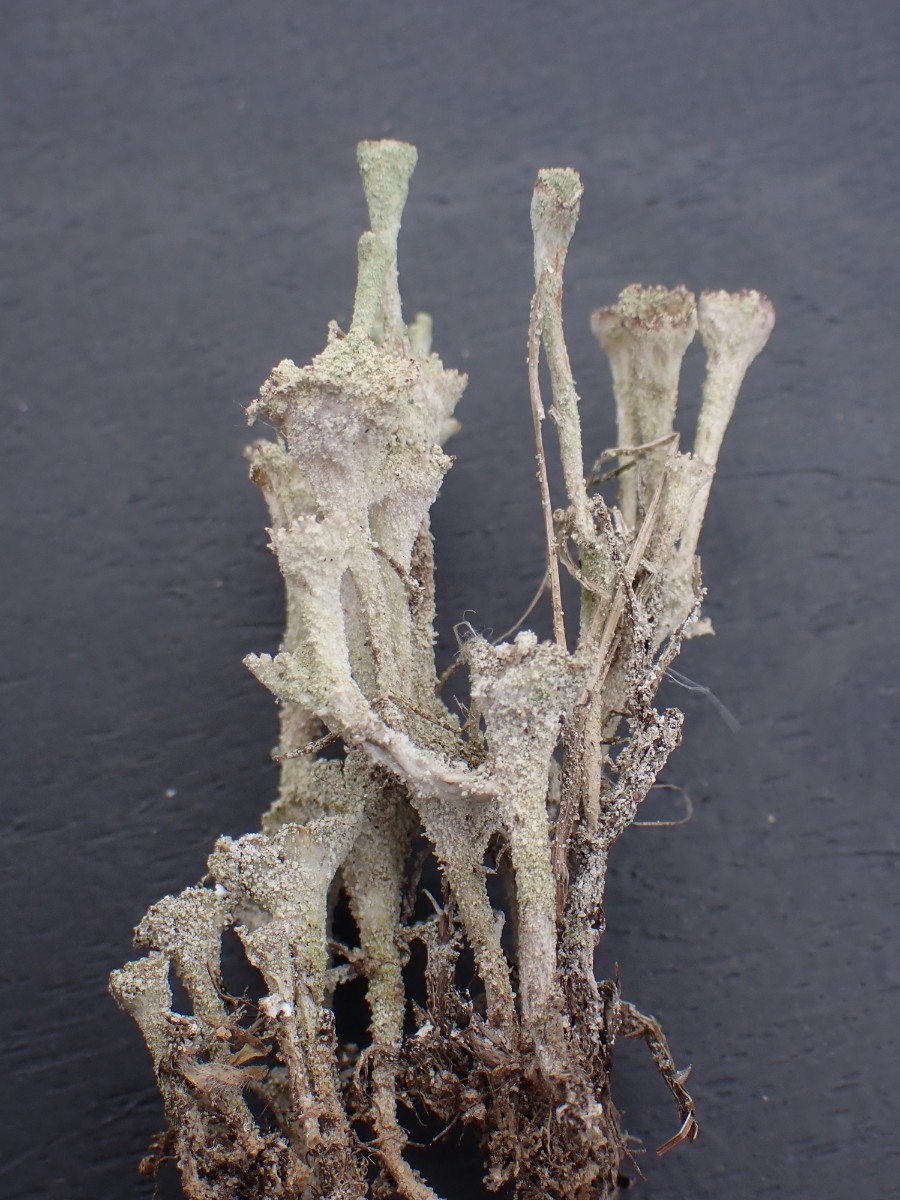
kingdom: Fungi
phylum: Ascomycota
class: Lecanoromycetes
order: Lecanorales
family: Cladoniaceae
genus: Cladonia
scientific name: Cladonia
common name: brungrøn bægerlav
